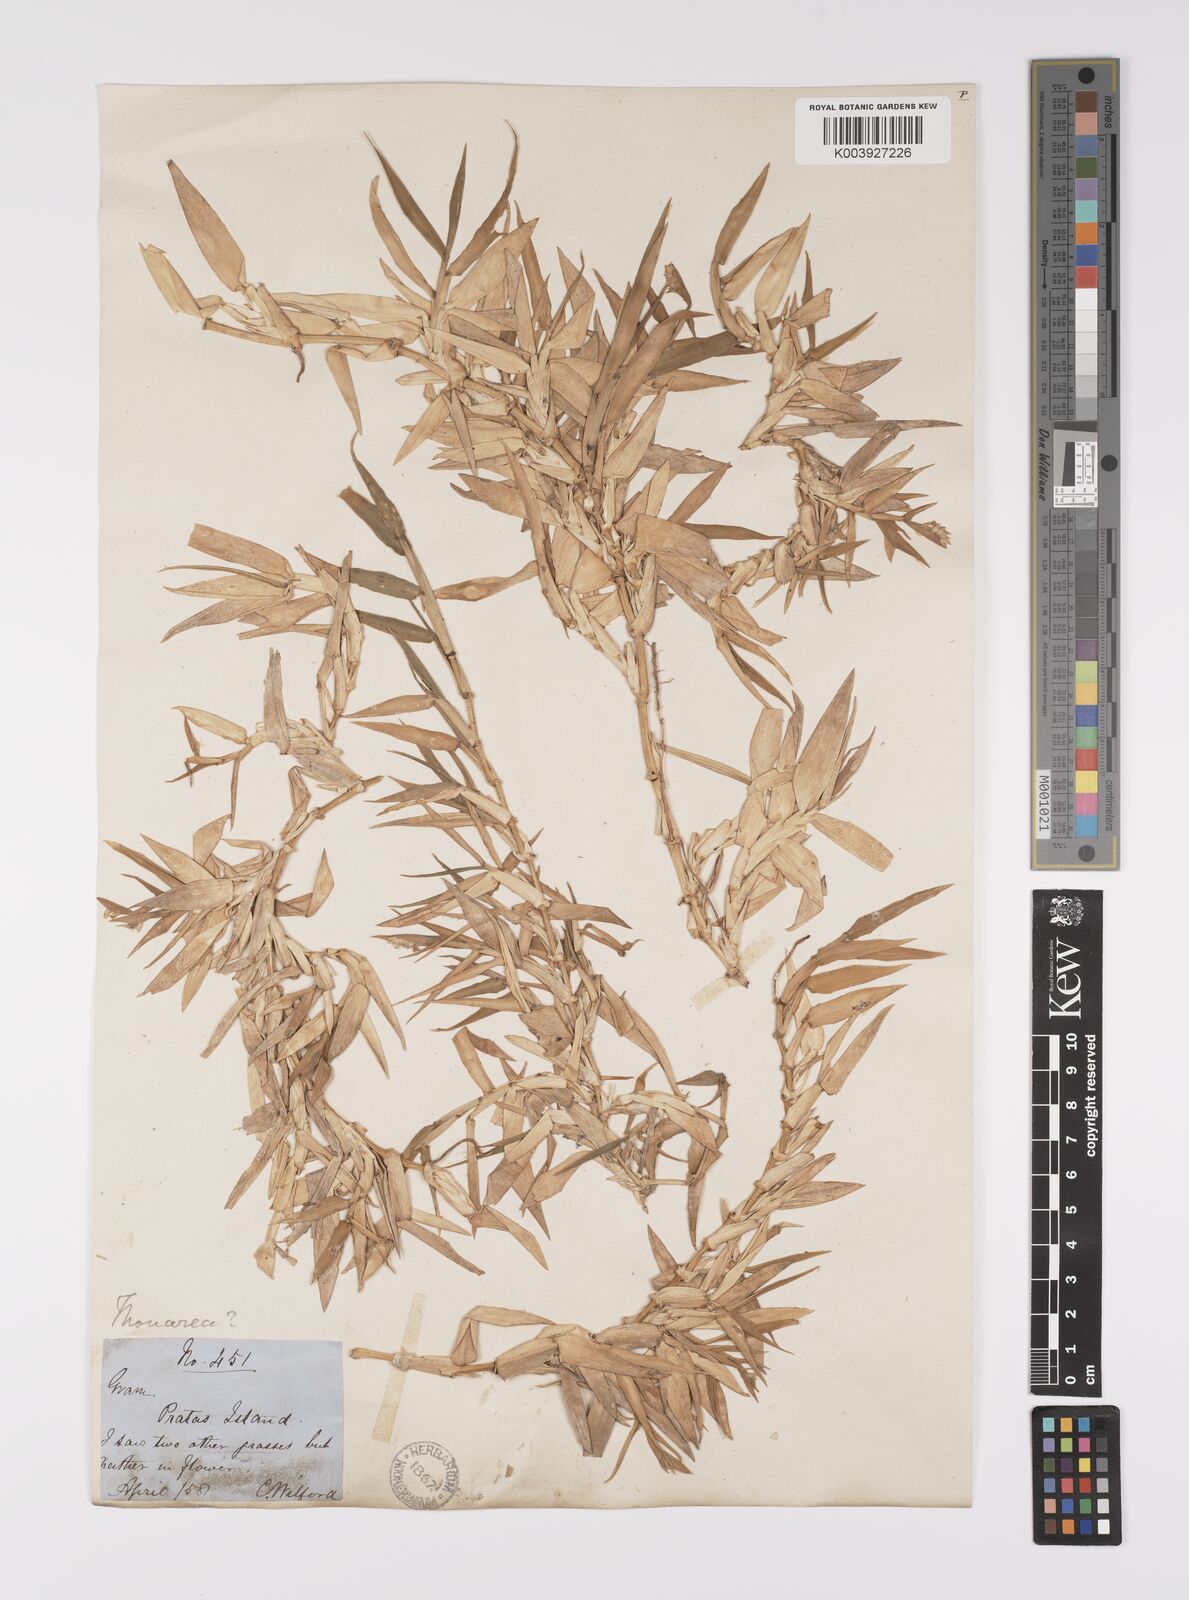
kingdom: Plantae
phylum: Tracheophyta
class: Liliopsida
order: Poales
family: Poaceae
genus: Thuarea
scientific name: Thuarea involuta
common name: Tropical beach grass
